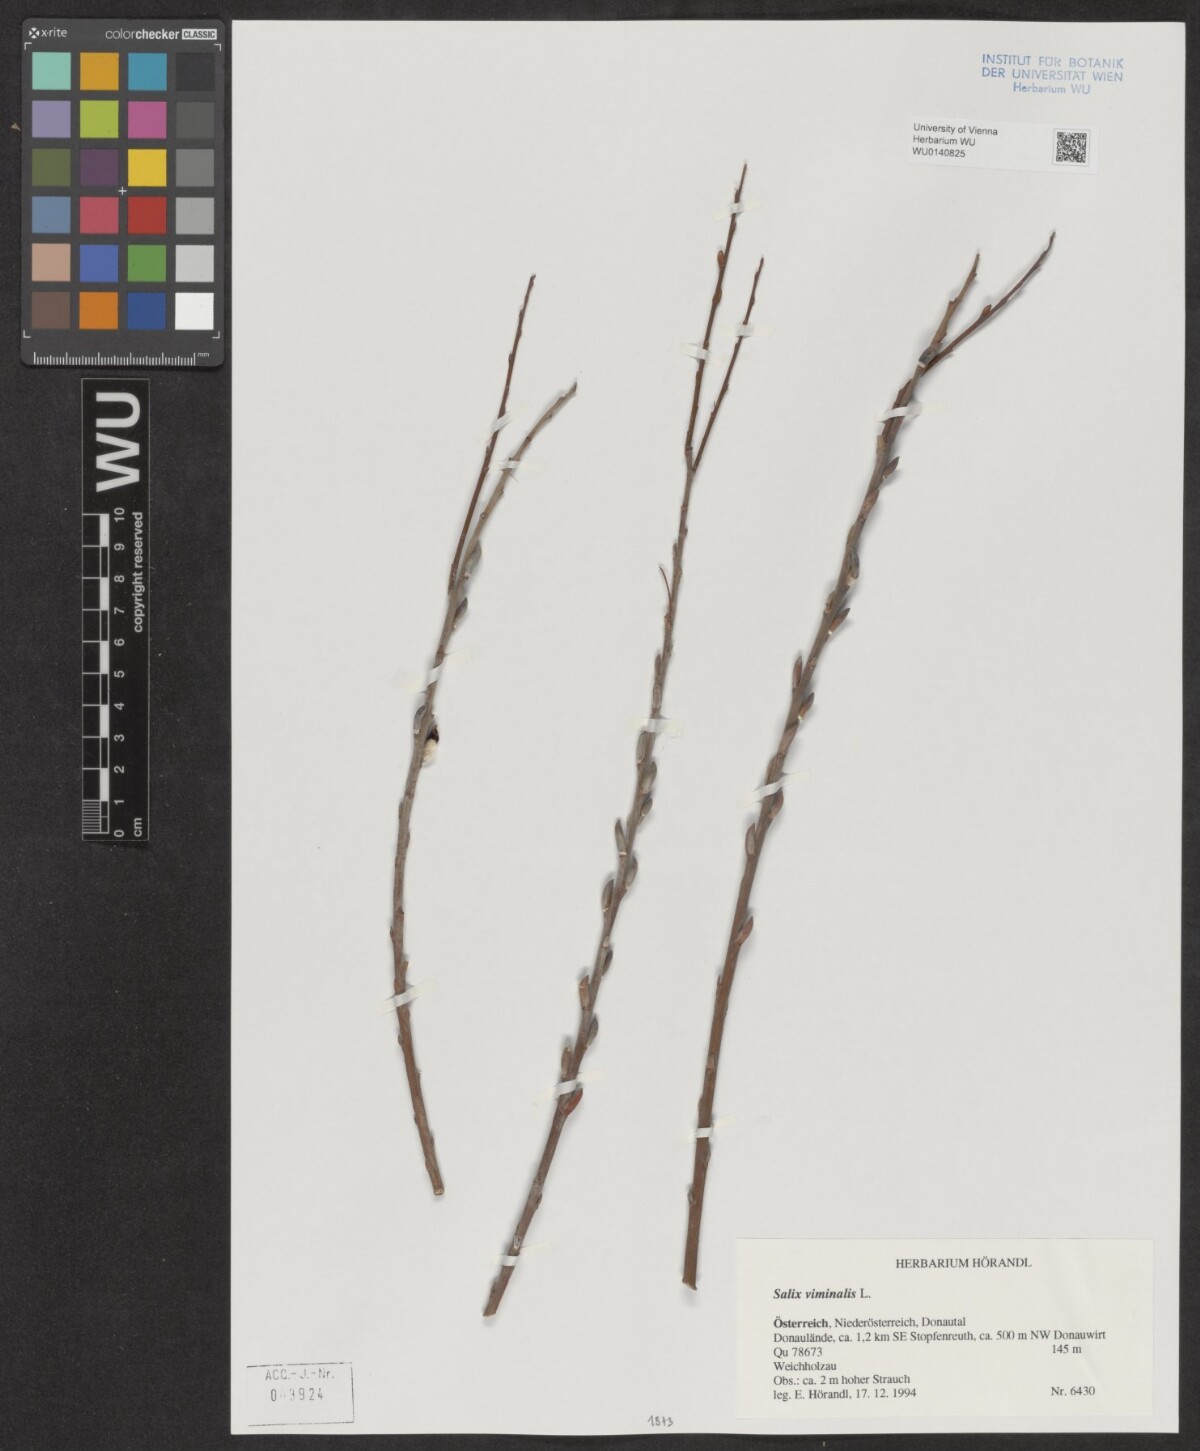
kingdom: Plantae
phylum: Tracheophyta
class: Magnoliopsida
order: Malpighiales
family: Salicaceae
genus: Salix
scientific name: Salix viminalis
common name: Osier
